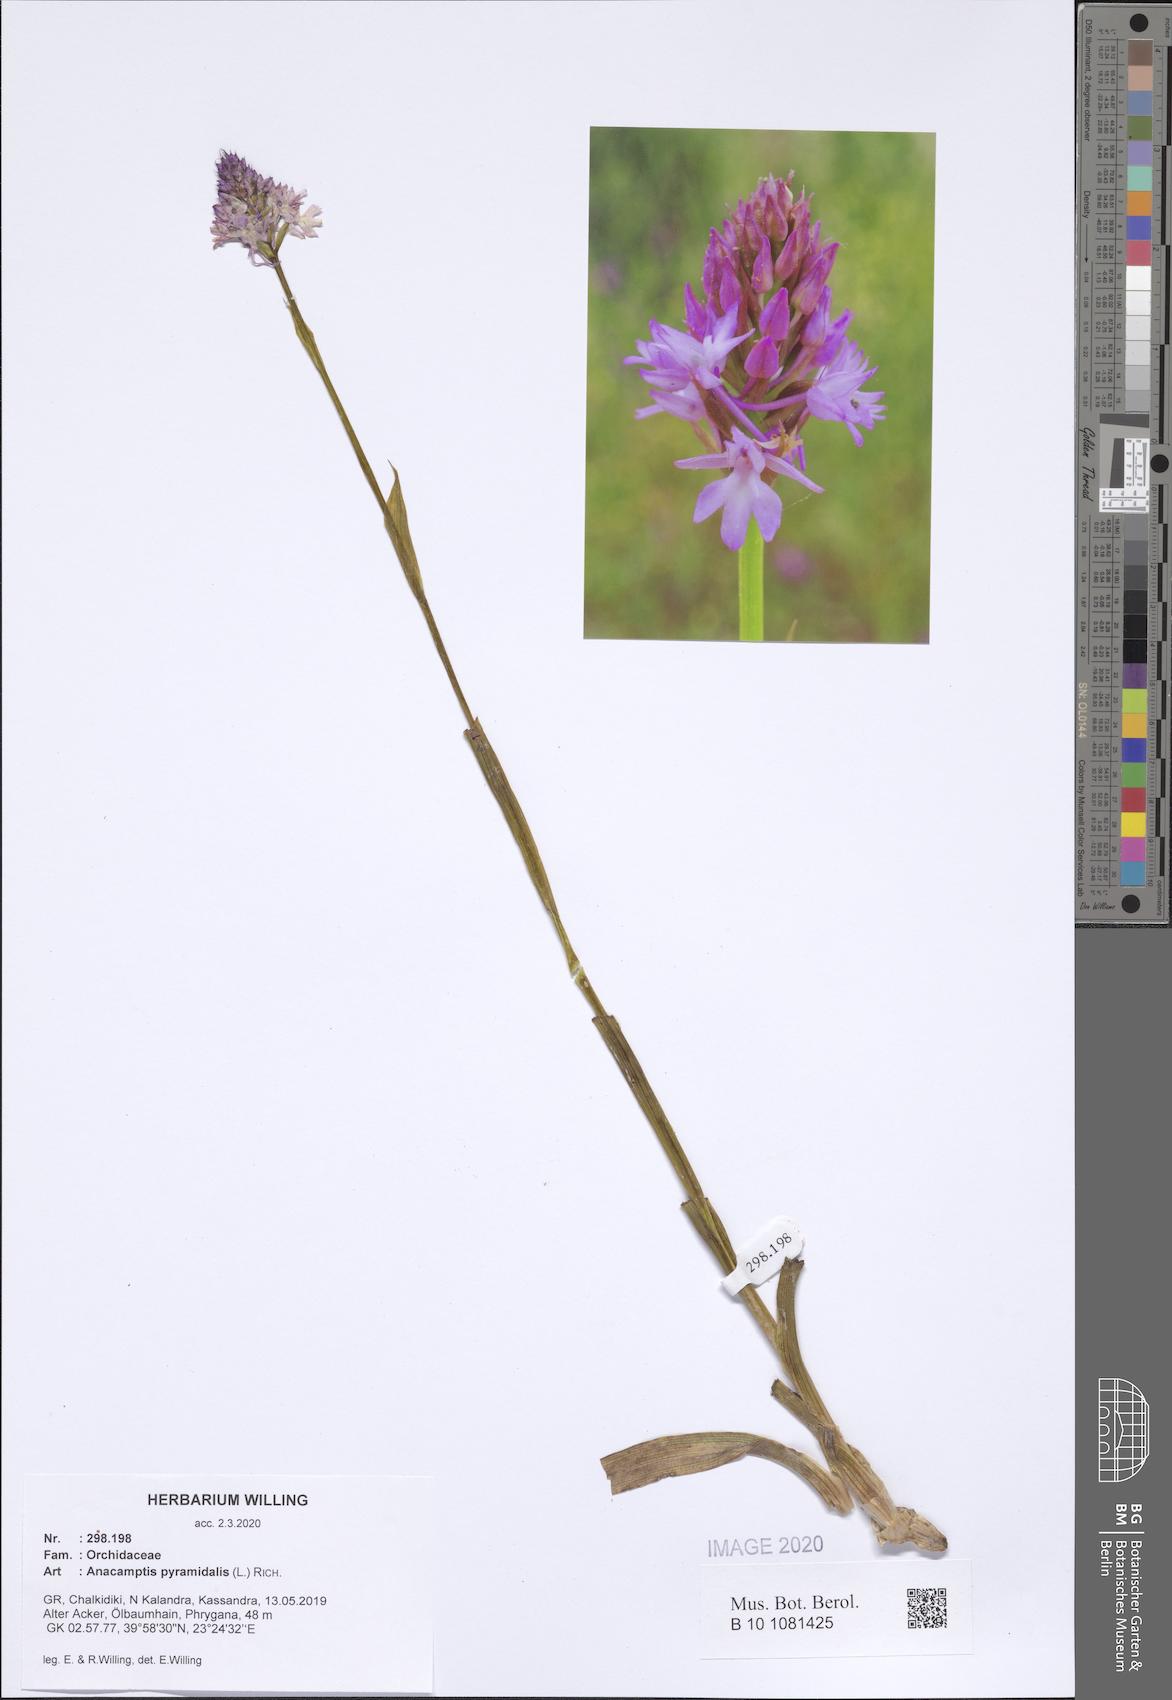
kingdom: Plantae
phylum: Tracheophyta
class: Liliopsida
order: Asparagales
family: Orchidaceae
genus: Anacamptis
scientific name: Anacamptis pyramidalis
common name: Pyramidal orchid
